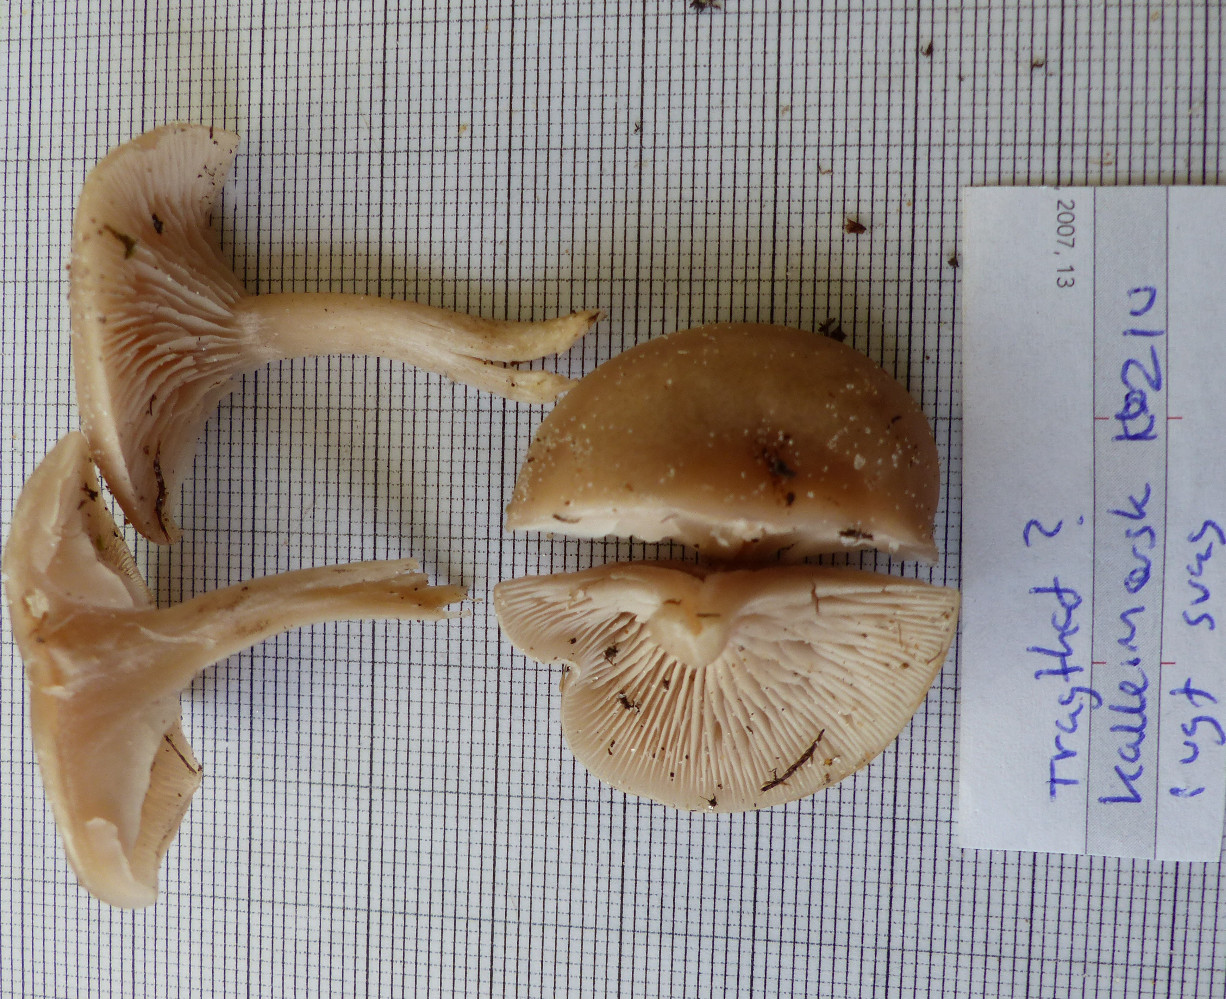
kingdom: Fungi
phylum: Basidiomycota
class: Agaricomycetes
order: Agaricales
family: Tricholomataceae
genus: Clitocybe
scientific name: Clitocybe
